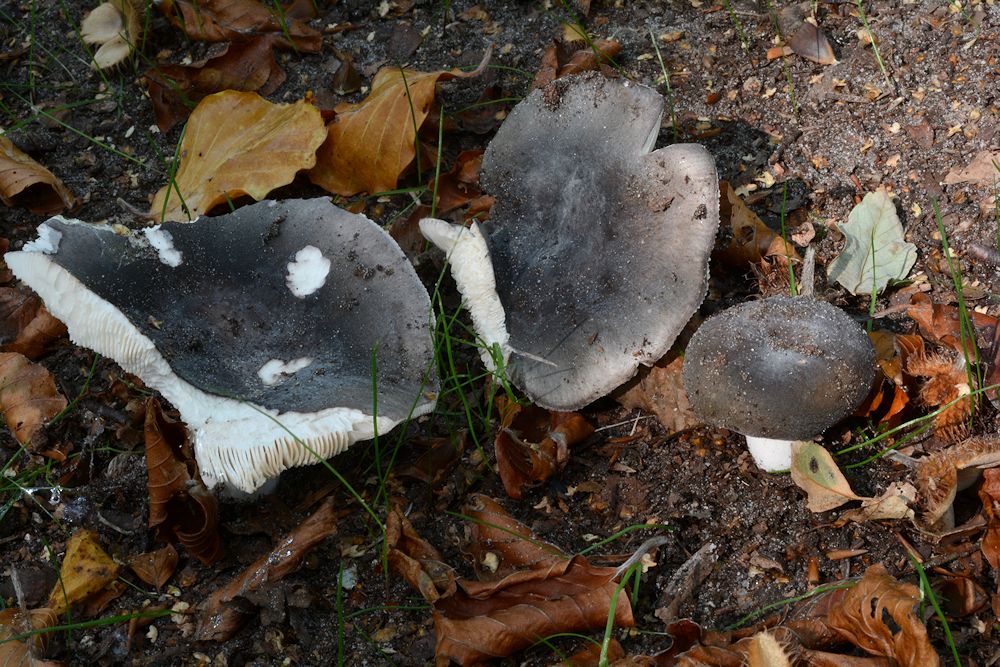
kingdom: Fungi
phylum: Basidiomycota
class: Agaricomycetes
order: Russulales
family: Russulaceae
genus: Russula
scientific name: Russula parazurea
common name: blågrå skørhat
